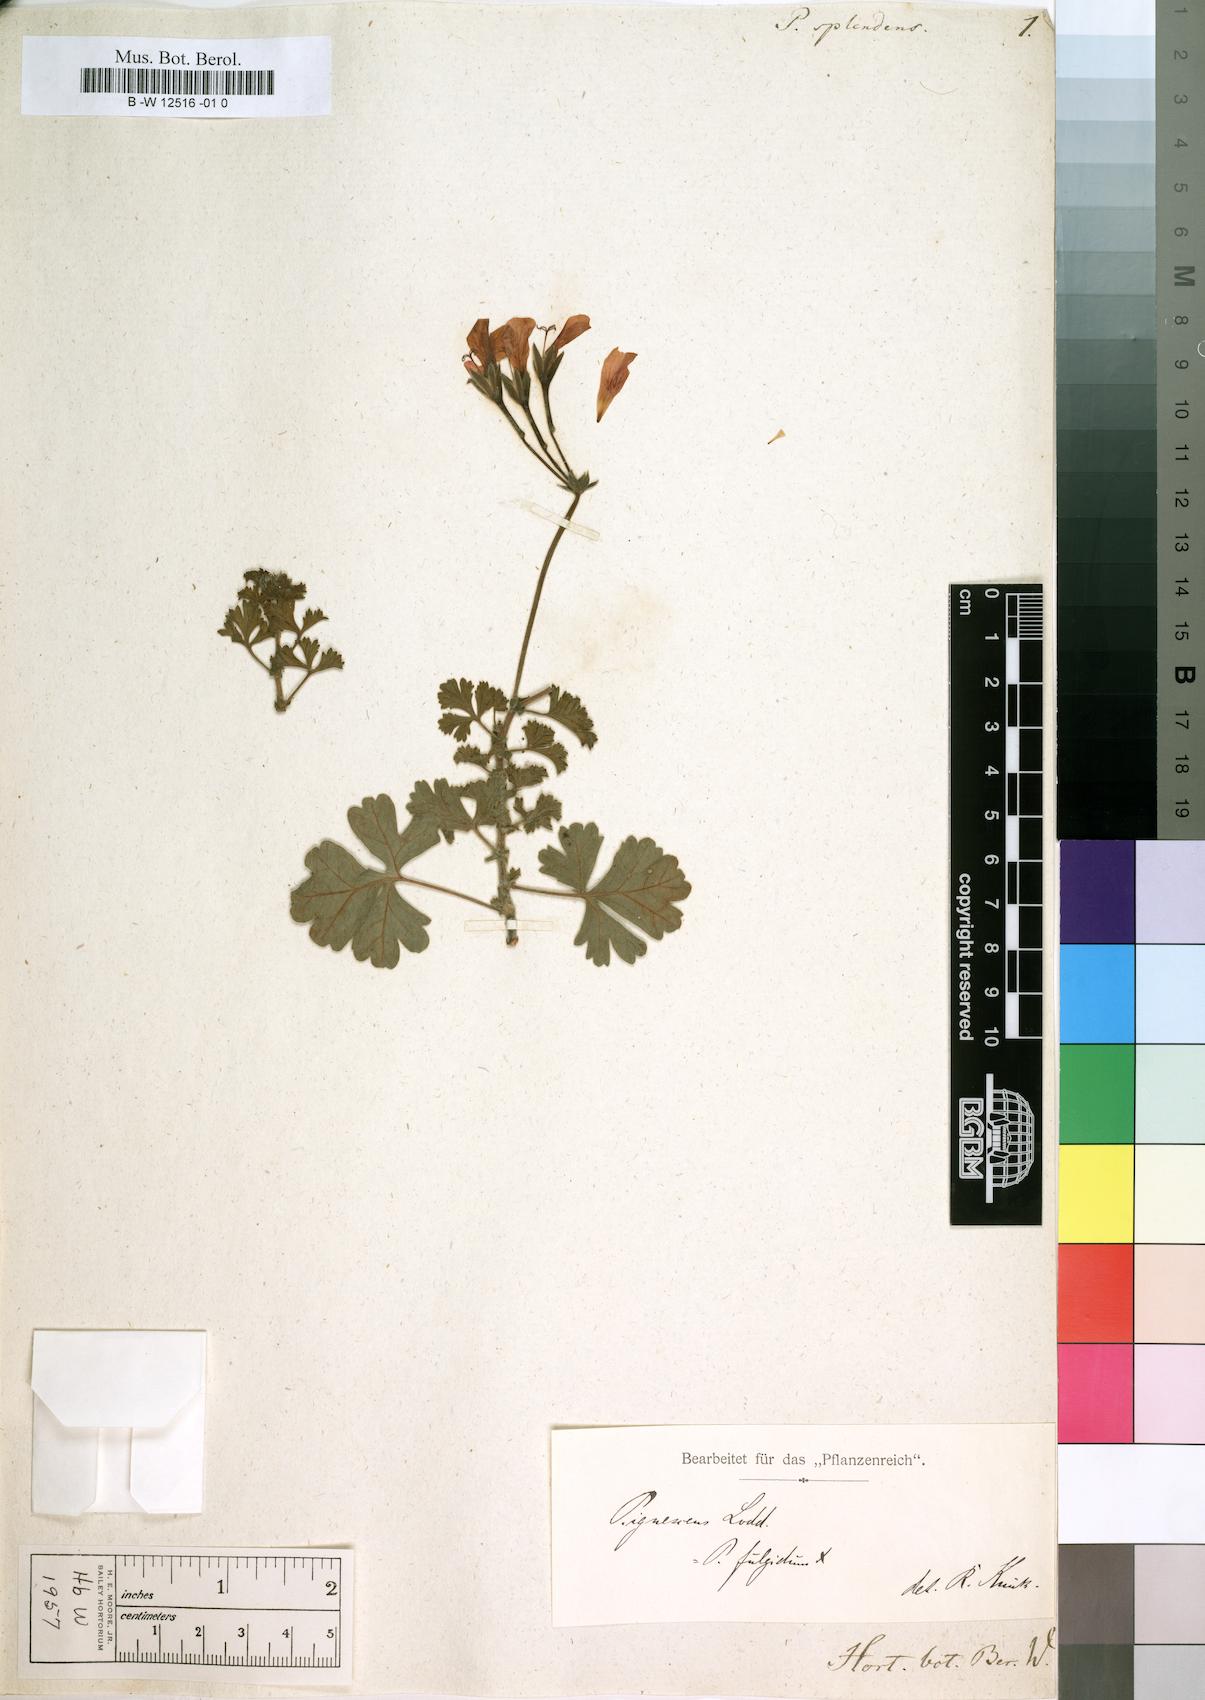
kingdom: Plantae
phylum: Tracheophyta
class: Magnoliopsida
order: Geraniales
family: Geraniaceae
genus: Pelargonium
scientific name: Pelargonium splendens
